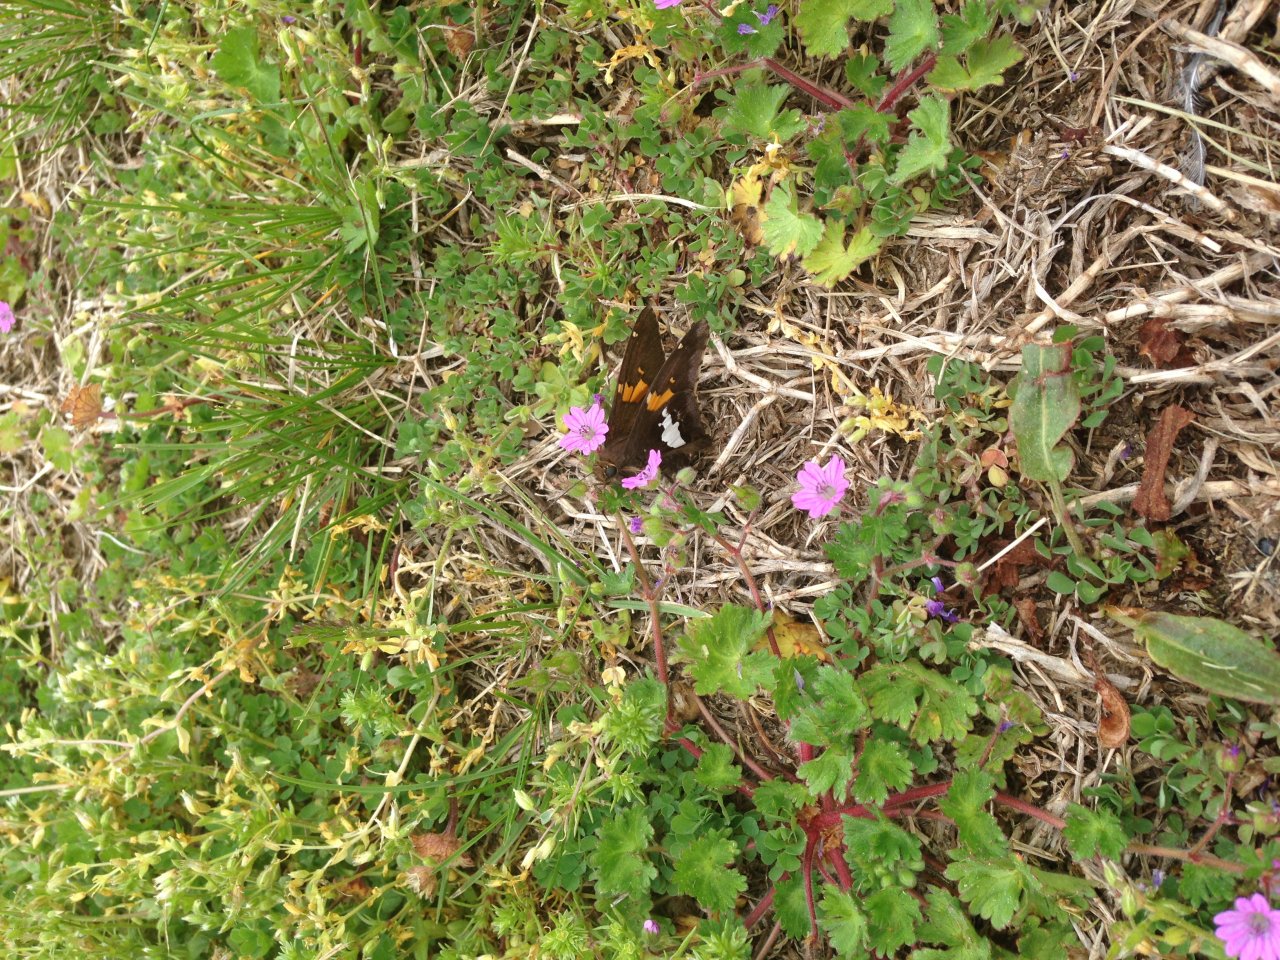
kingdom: Animalia
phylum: Arthropoda
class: Insecta
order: Lepidoptera
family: Hesperiidae
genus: Epargyreus
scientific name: Epargyreus clarus
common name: Silver-spotted Skipper
